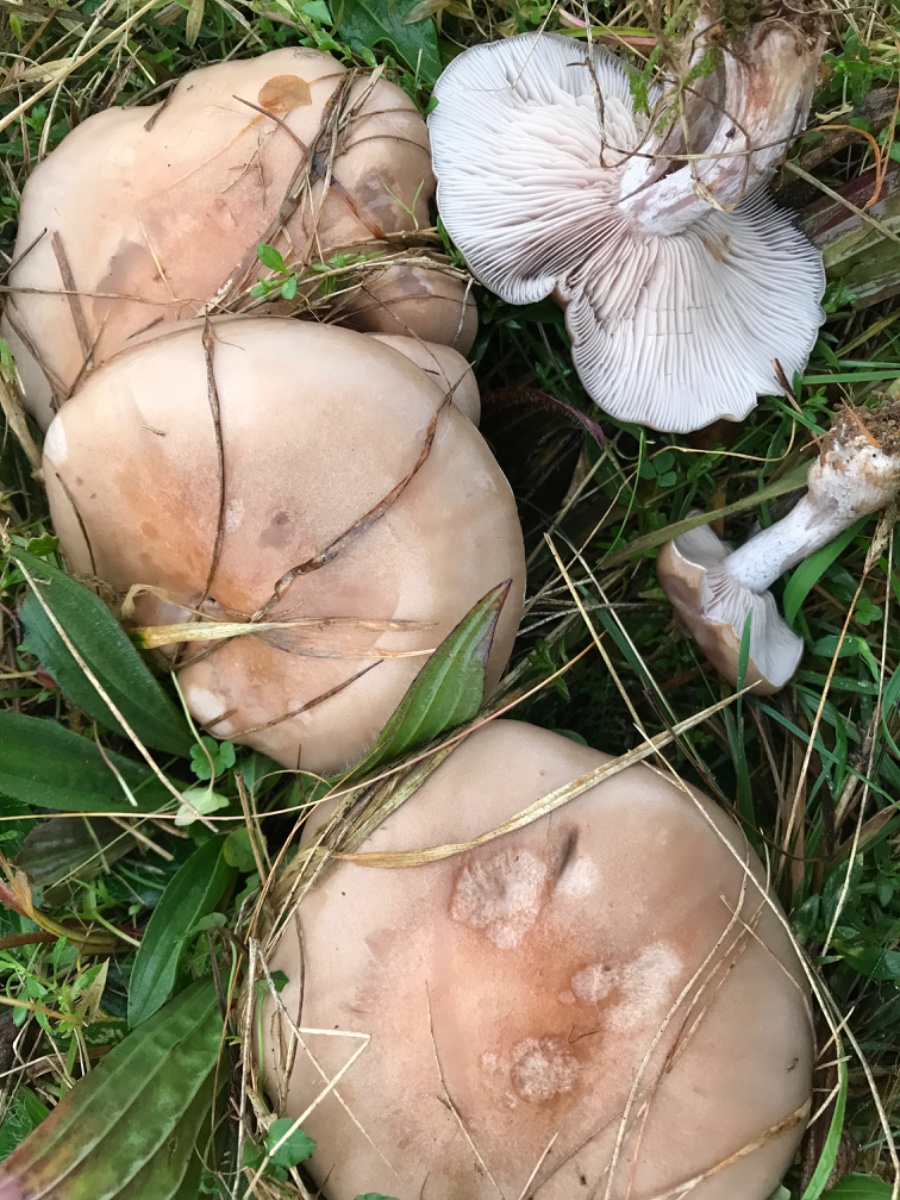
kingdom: Fungi
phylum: Basidiomycota
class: Agaricomycetes
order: Agaricales
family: Tricholomataceae
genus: Lepista
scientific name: Lepista nuda
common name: violet hekseringshat
